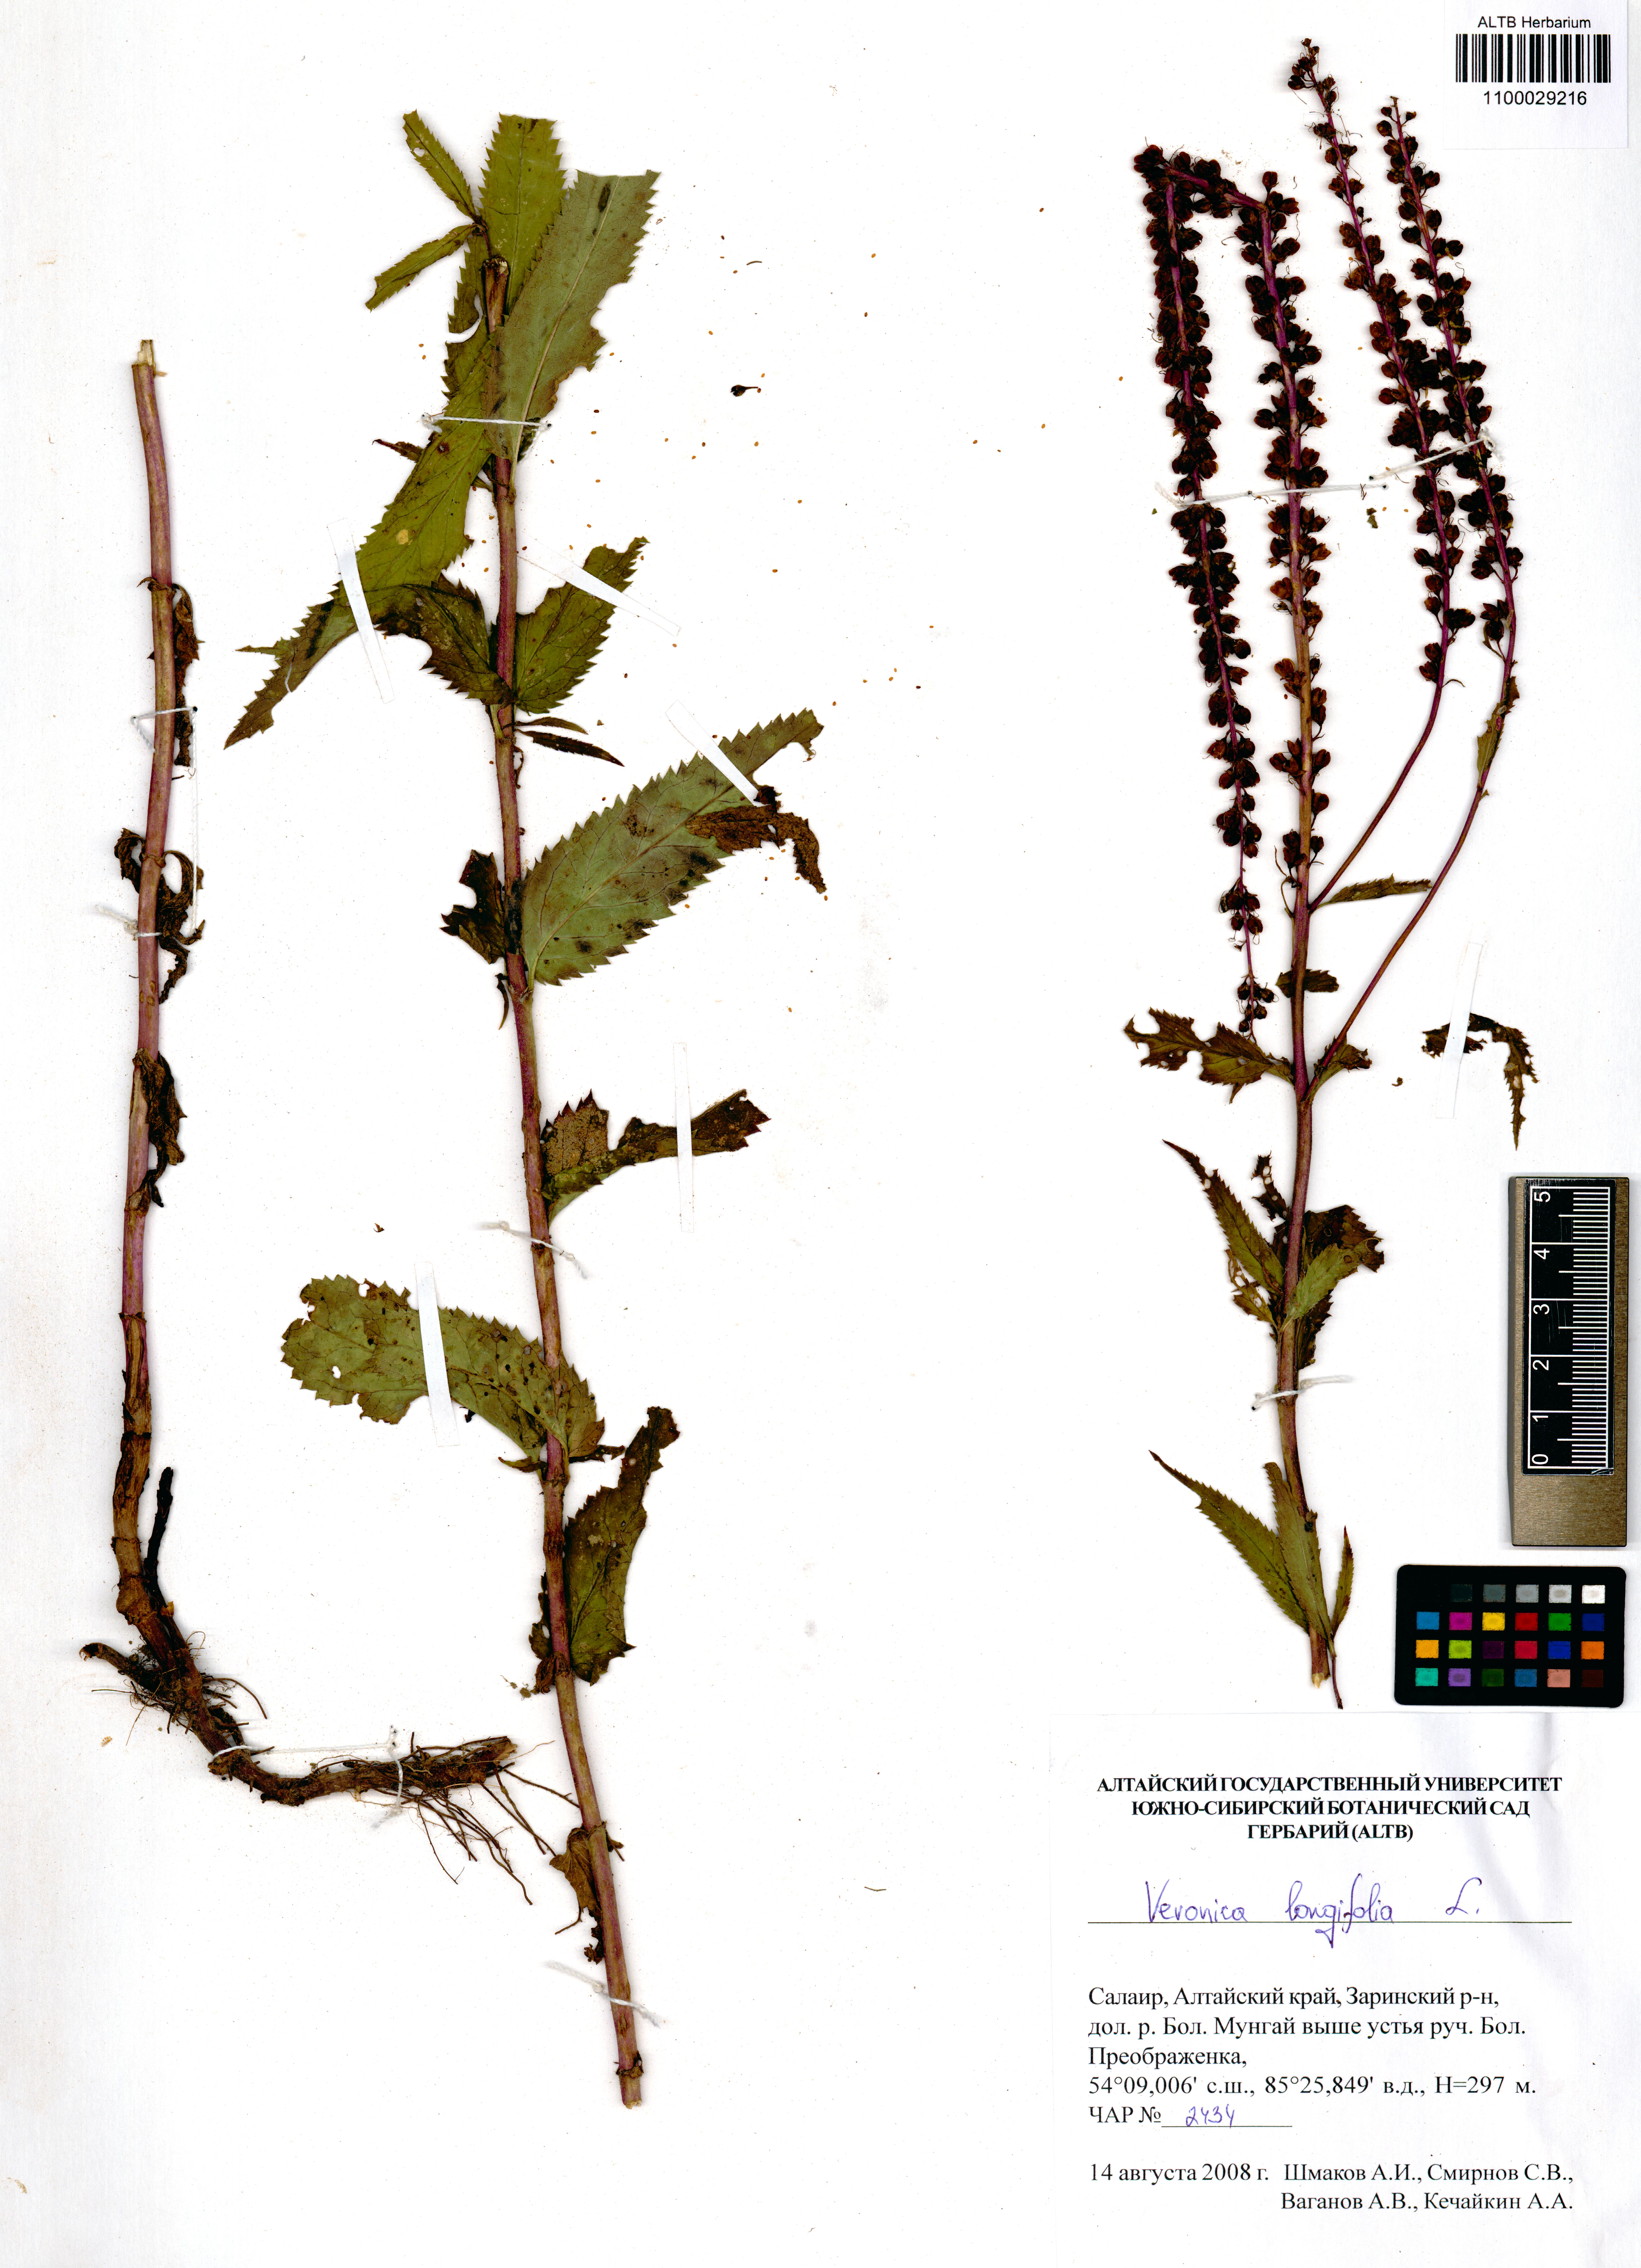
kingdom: Plantae
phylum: Tracheophyta
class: Magnoliopsida
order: Lamiales
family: Plantaginaceae
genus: Veronica
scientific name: Veronica longifolia
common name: Garden speedwell
